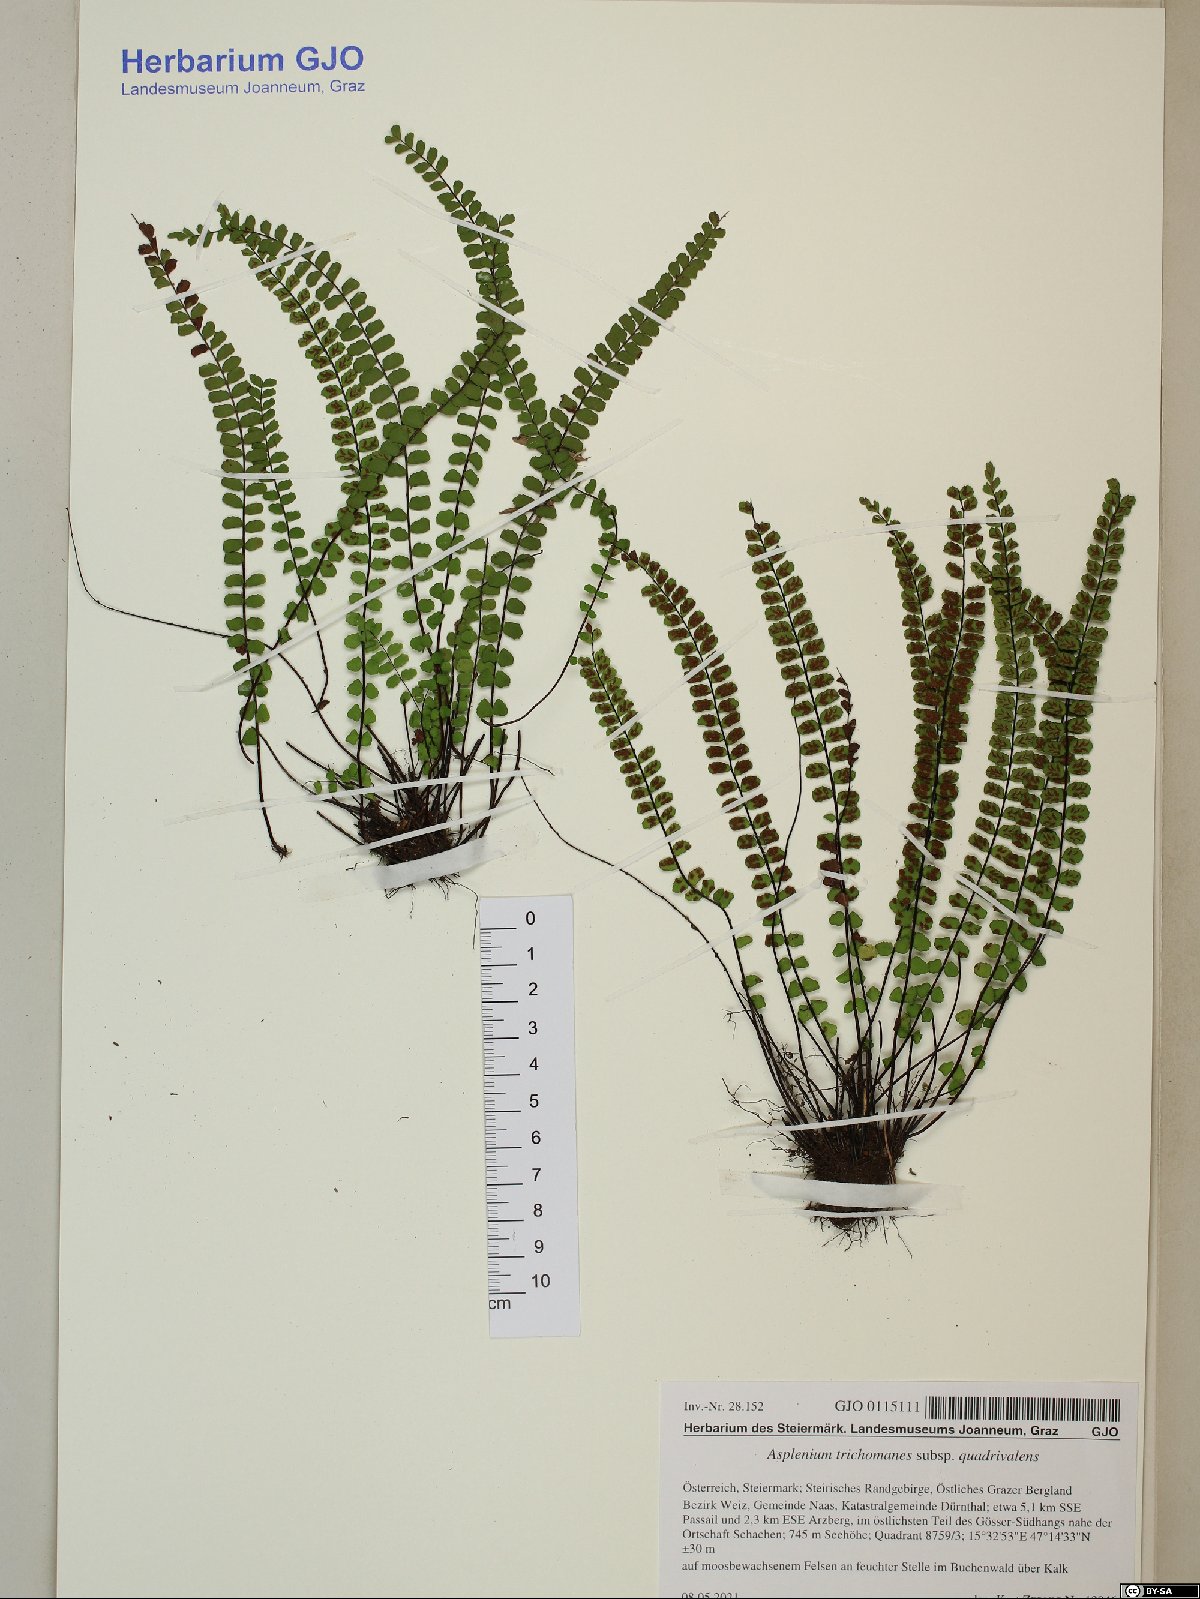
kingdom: Plantae
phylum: Tracheophyta
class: Polypodiopsida
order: Polypodiales
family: Aspleniaceae
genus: Asplenium
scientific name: Asplenium quadrivalens
